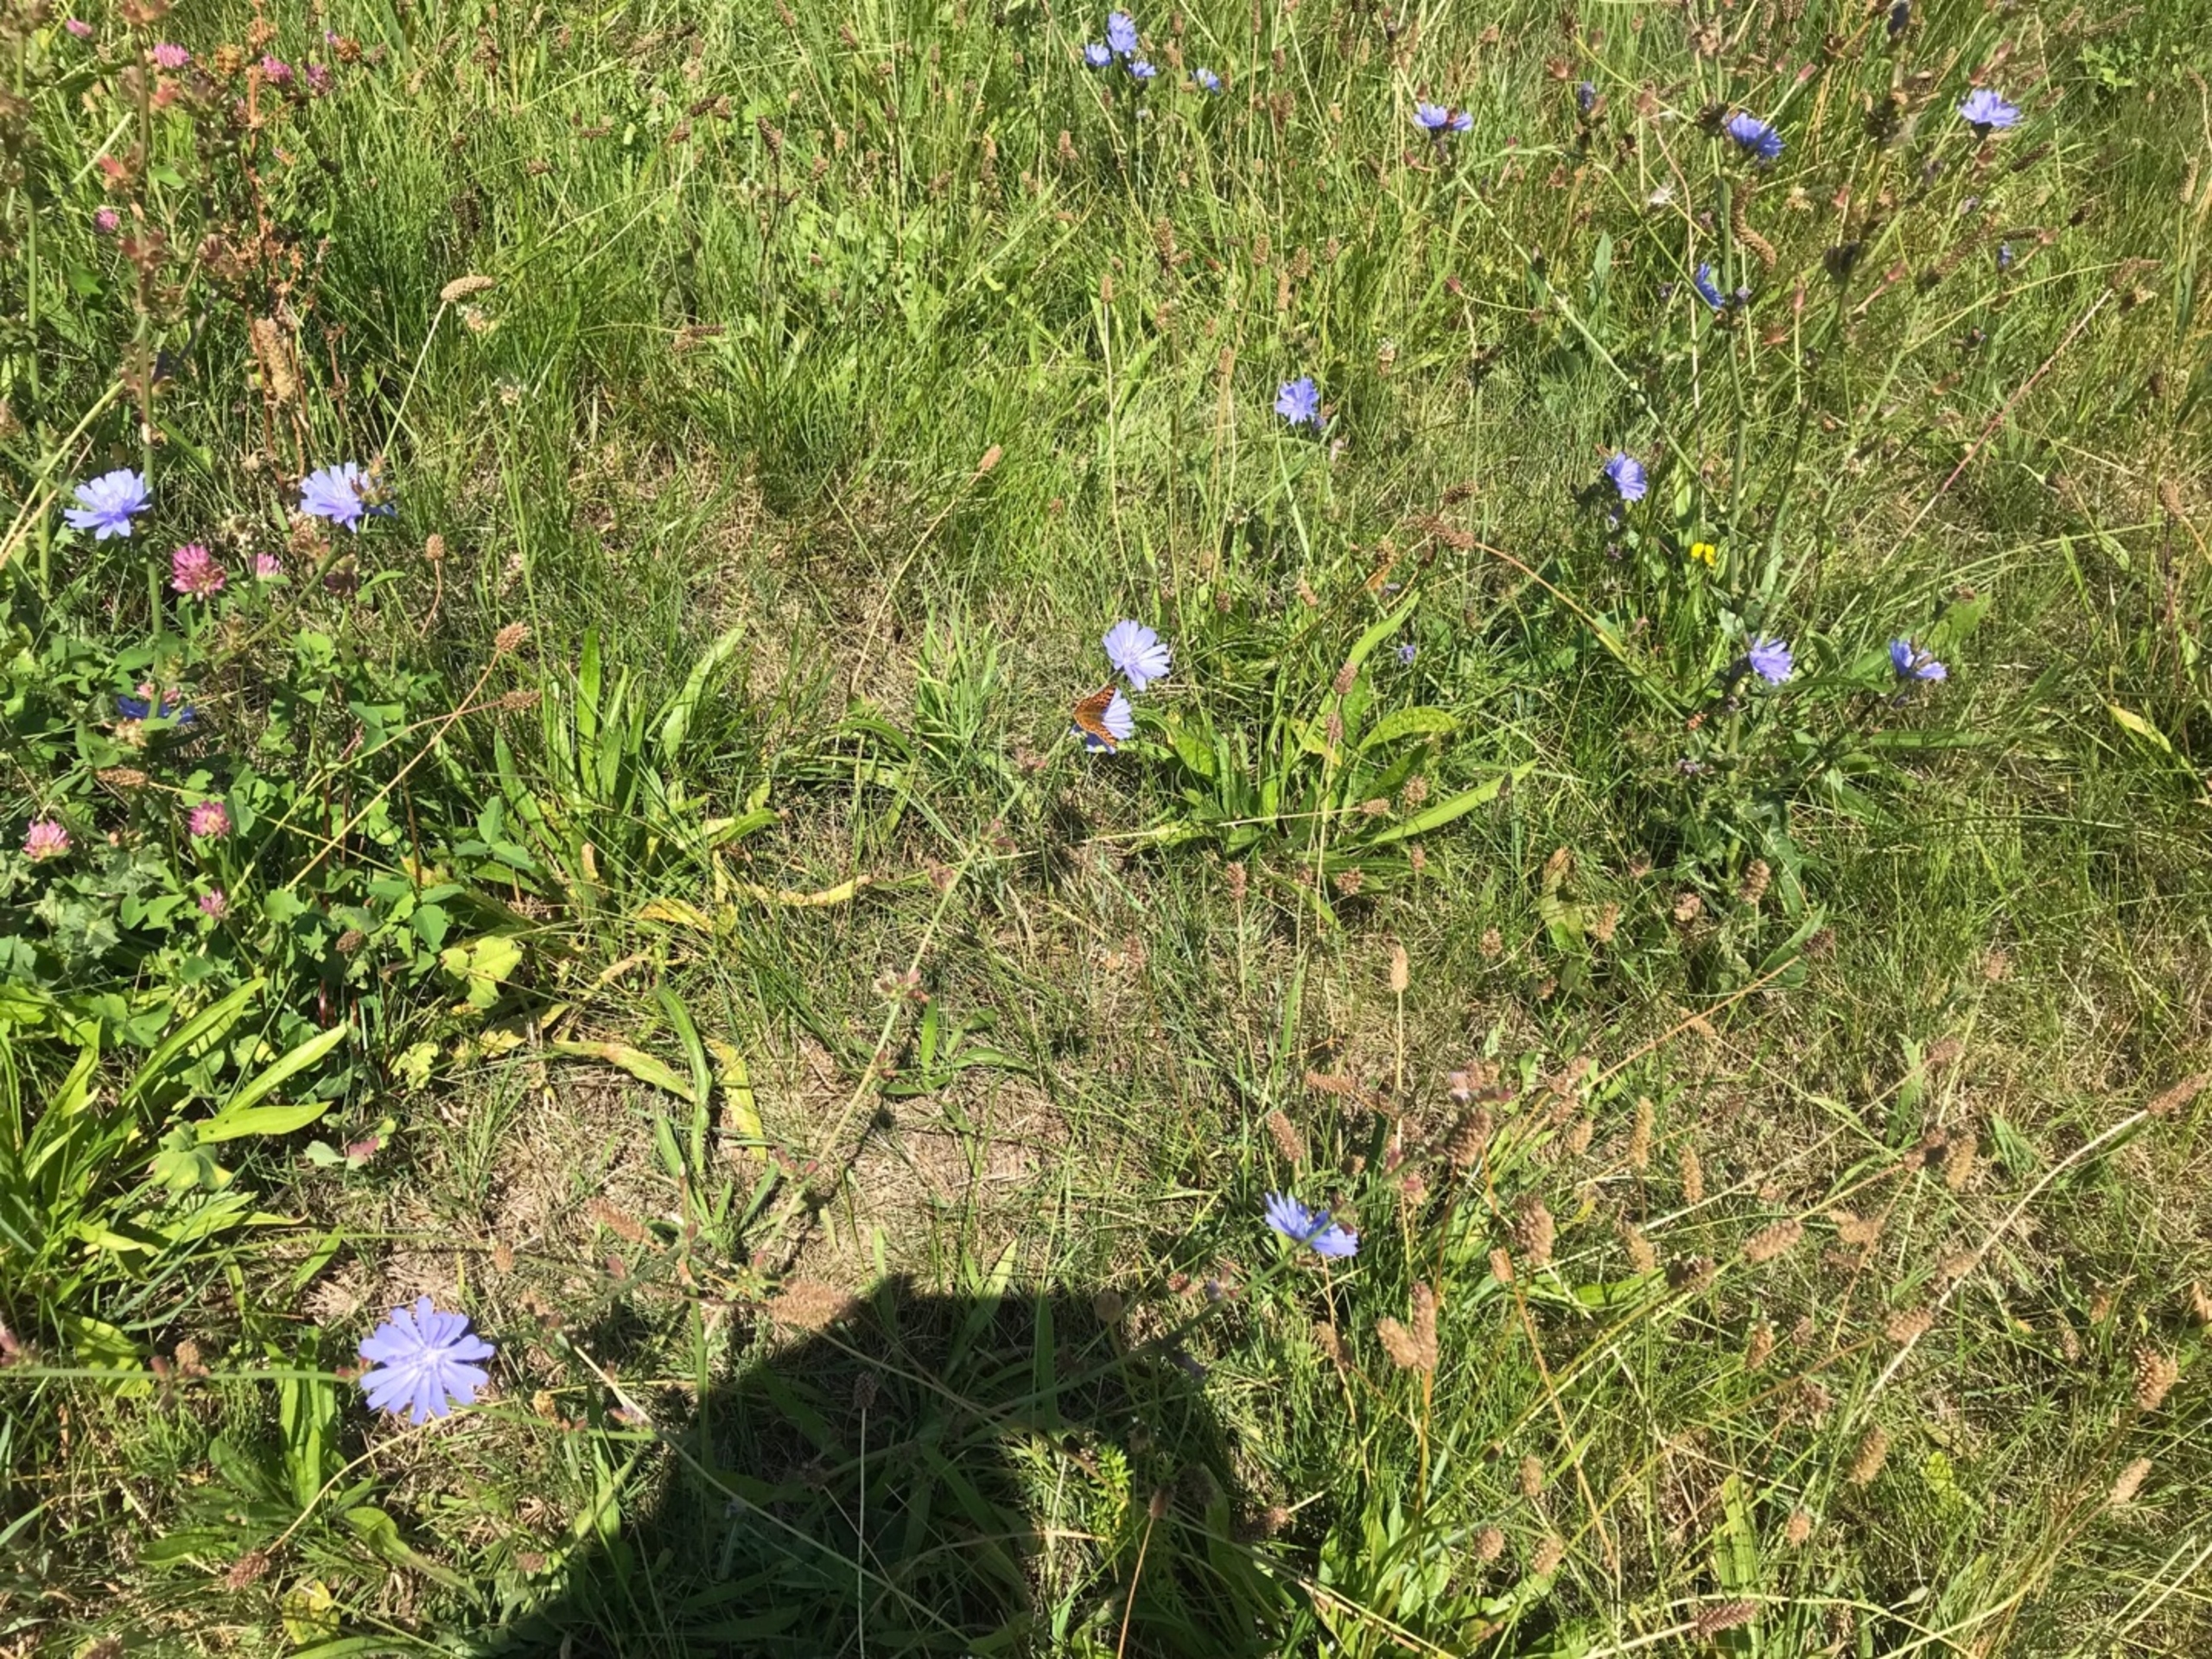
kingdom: Animalia
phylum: Arthropoda
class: Insecta
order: Lepidoptera
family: Nymphalidae
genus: Issoria
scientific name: Issoria lathonia
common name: Storplettet perlemorsommerfugl
